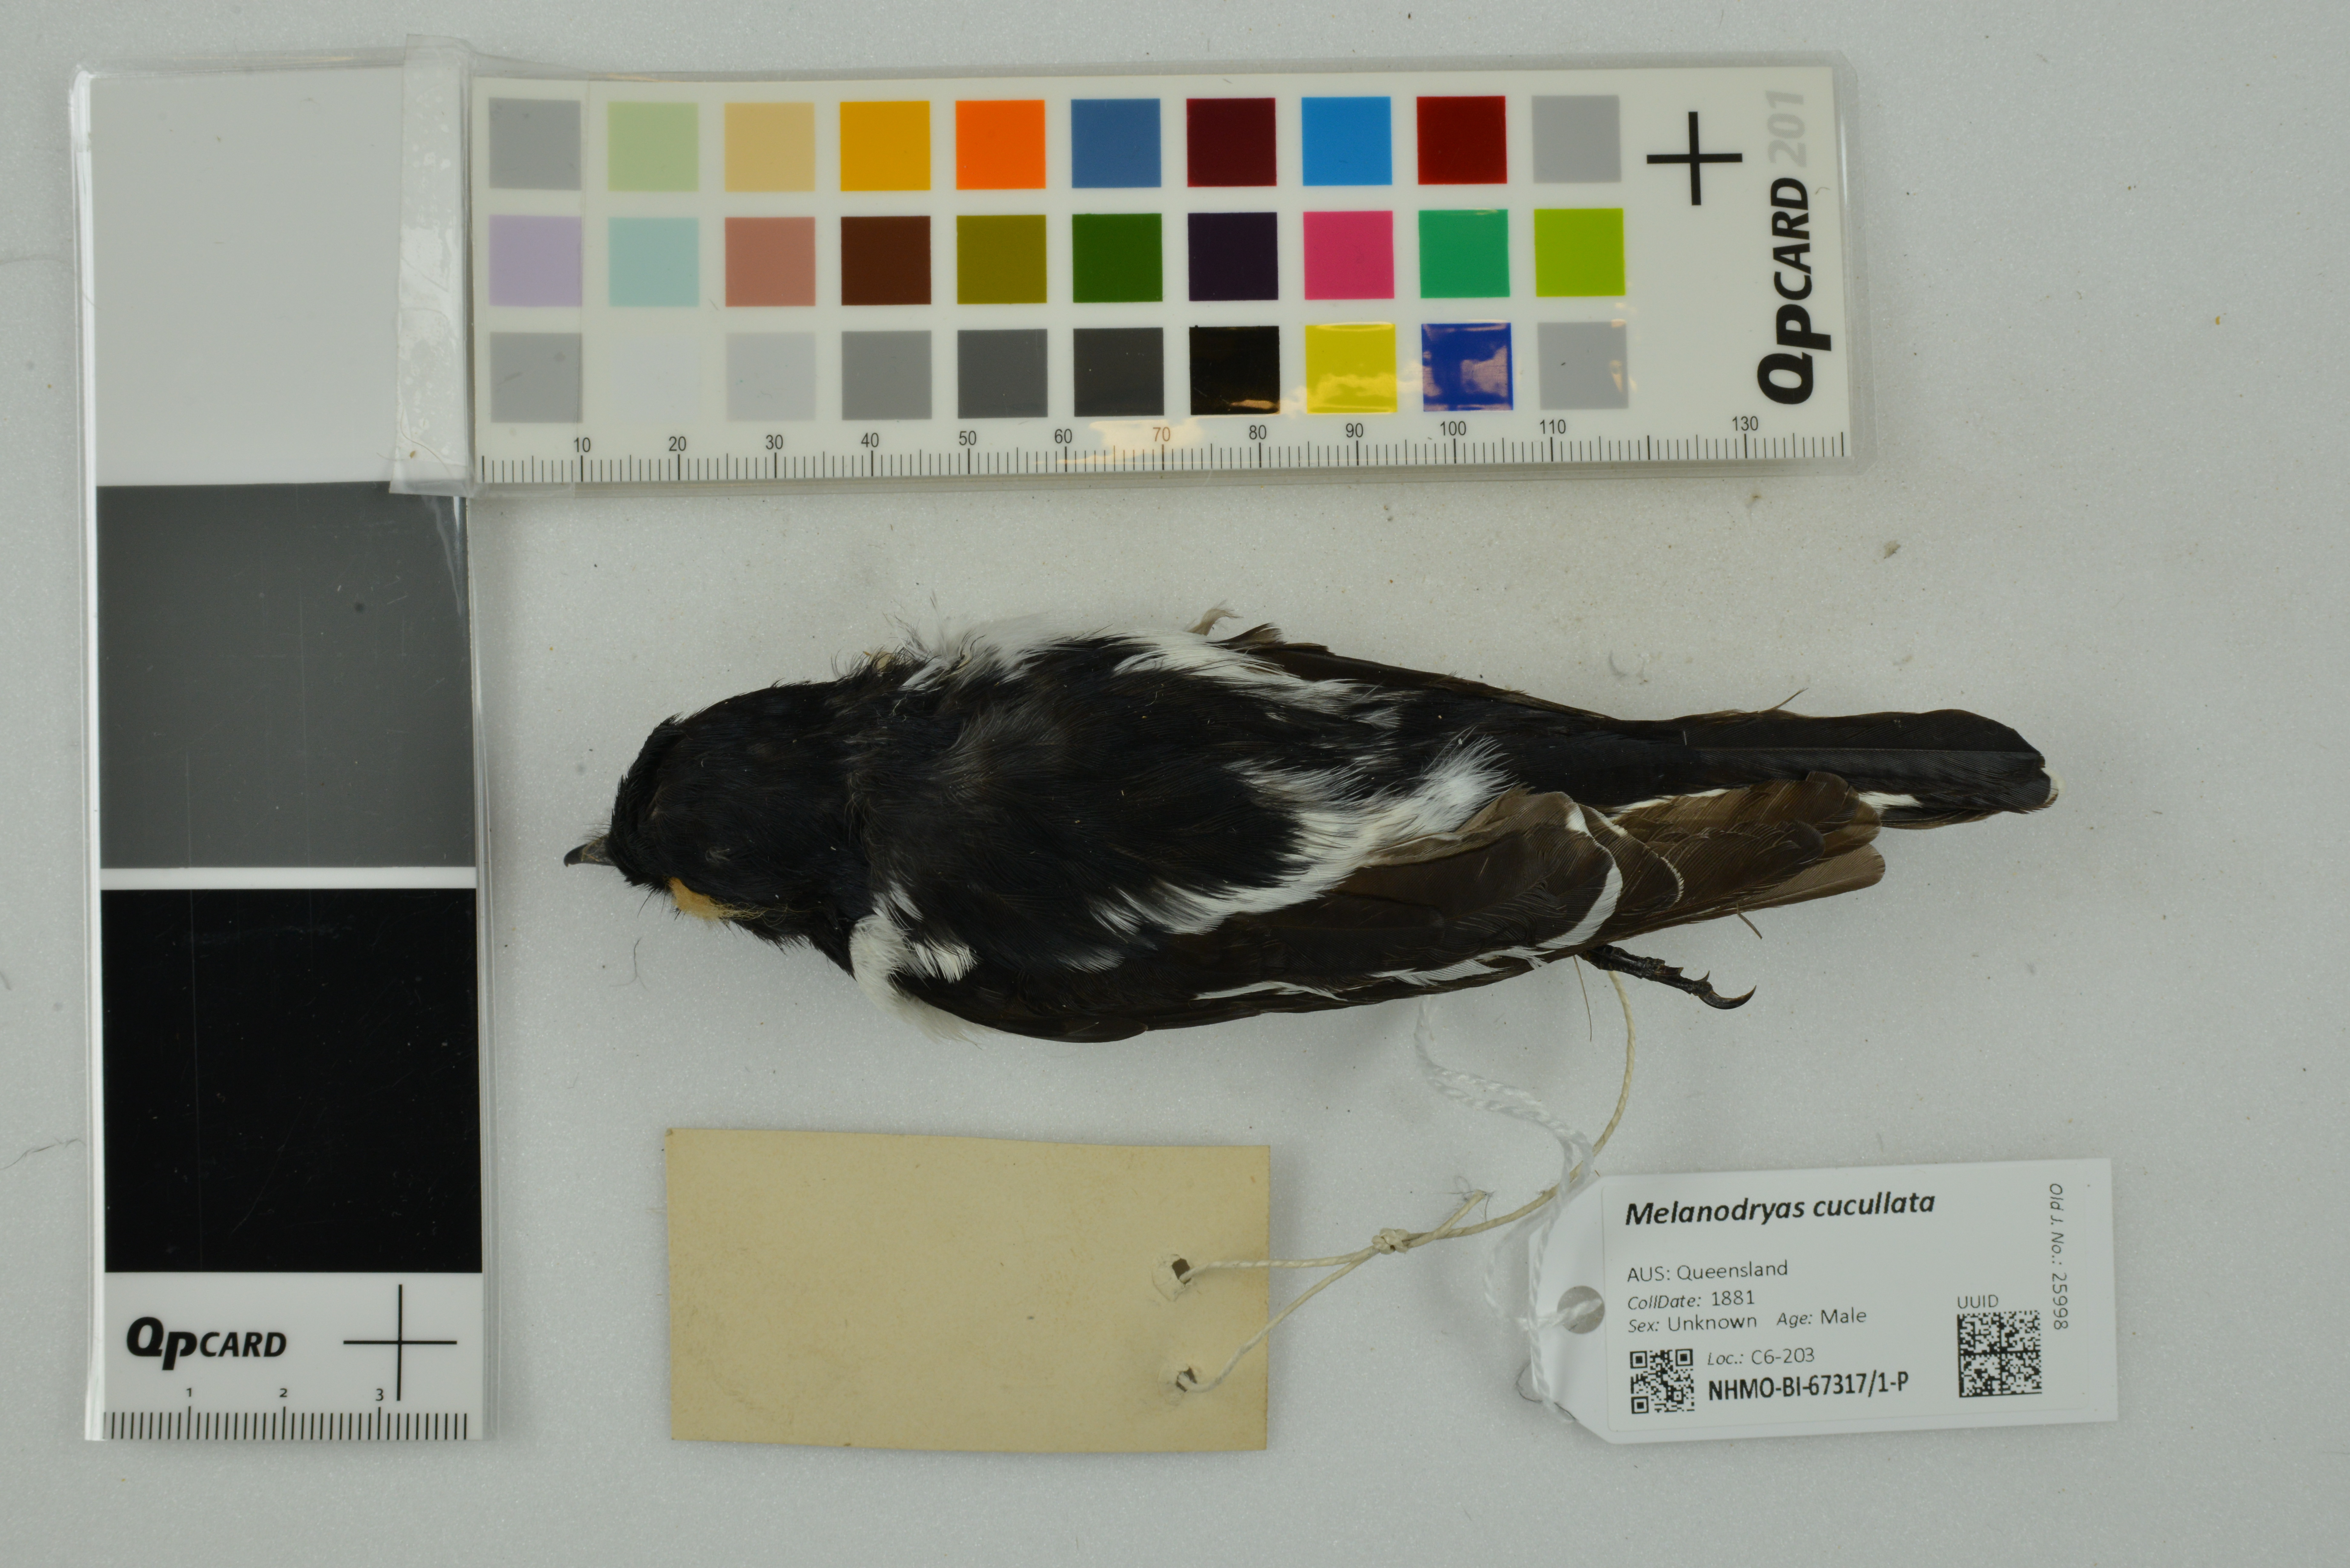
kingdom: Animalia
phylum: Chordata
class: Aves
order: Passeriformes
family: Petroicidae
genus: Melanodryas
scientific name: Melanodryas cucullata
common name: Hooded robin
